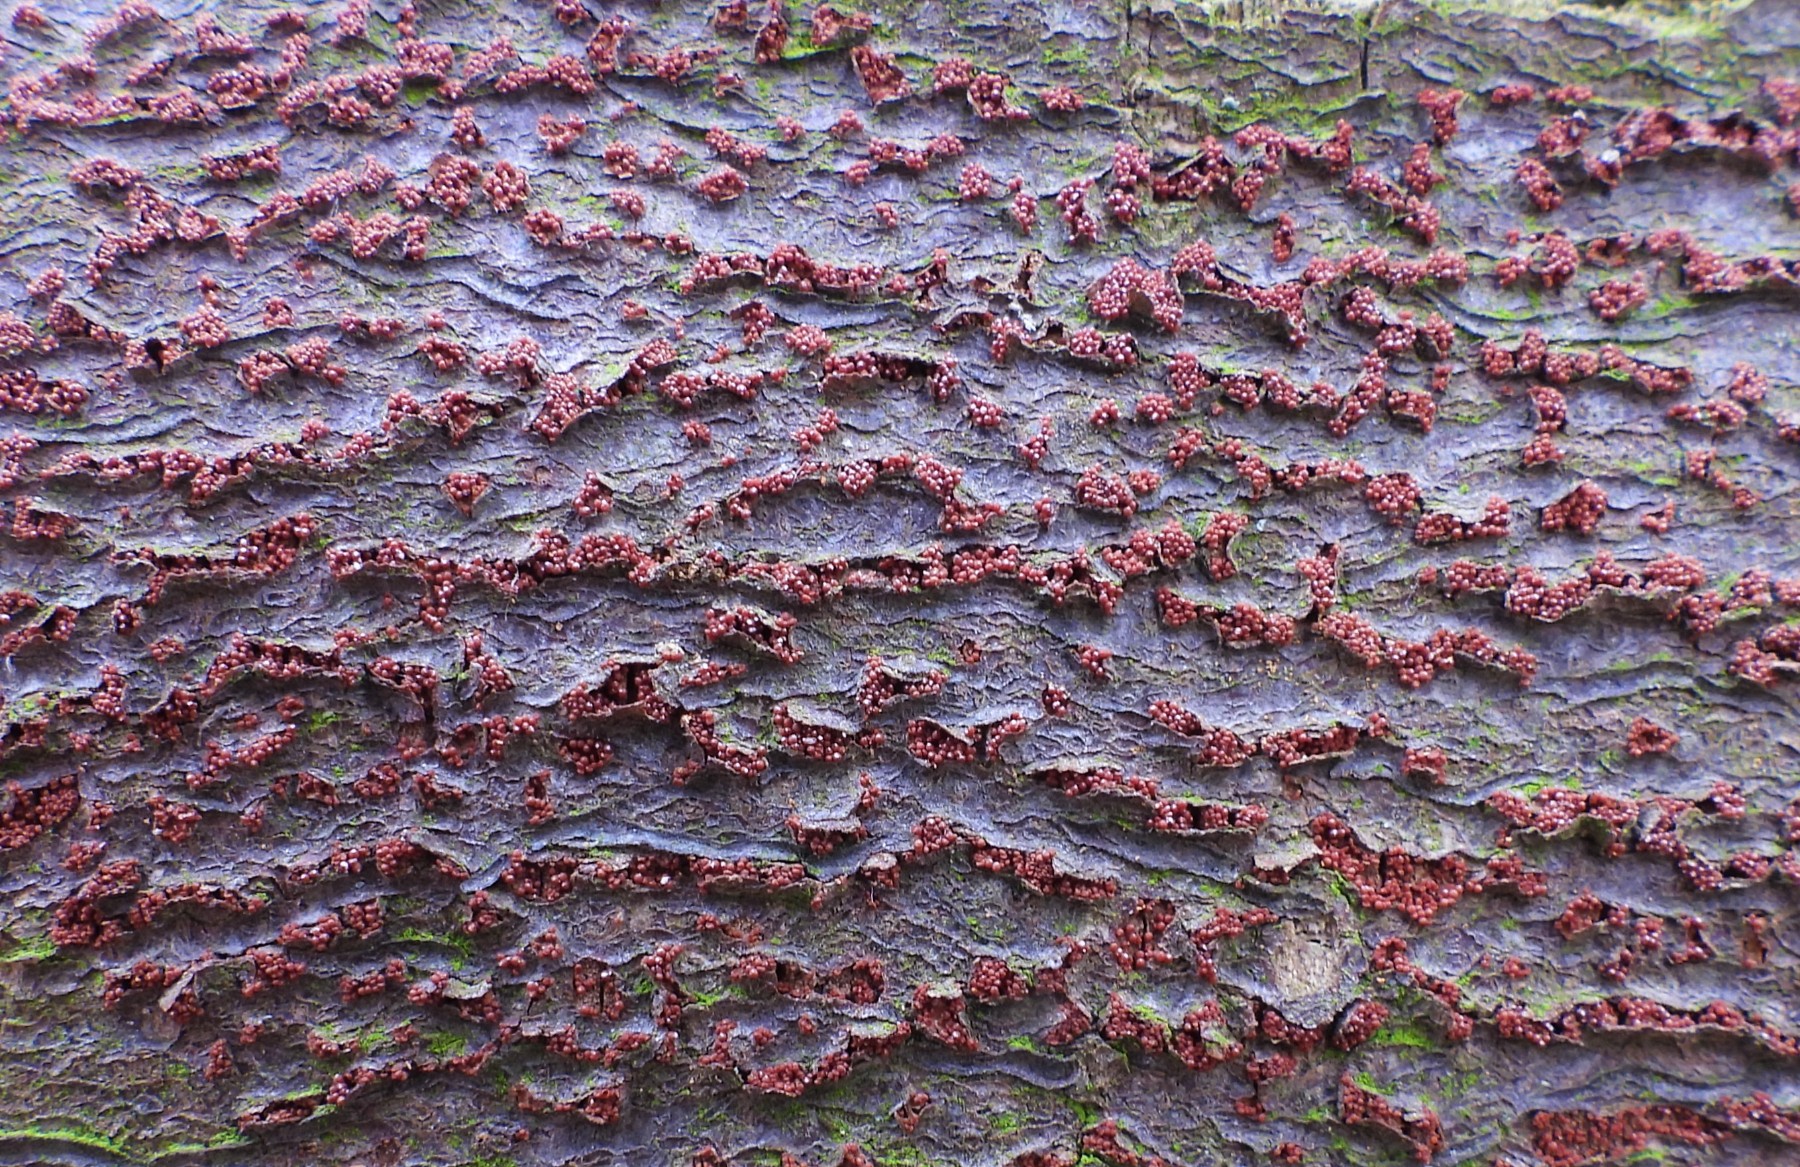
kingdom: Fungi
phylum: Ascomycota
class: Sordariomycetes
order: Hypocreales
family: Nectriaceae
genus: Neonectria
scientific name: Neonectria coccinea
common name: bøgebark-cinnobersvamp
